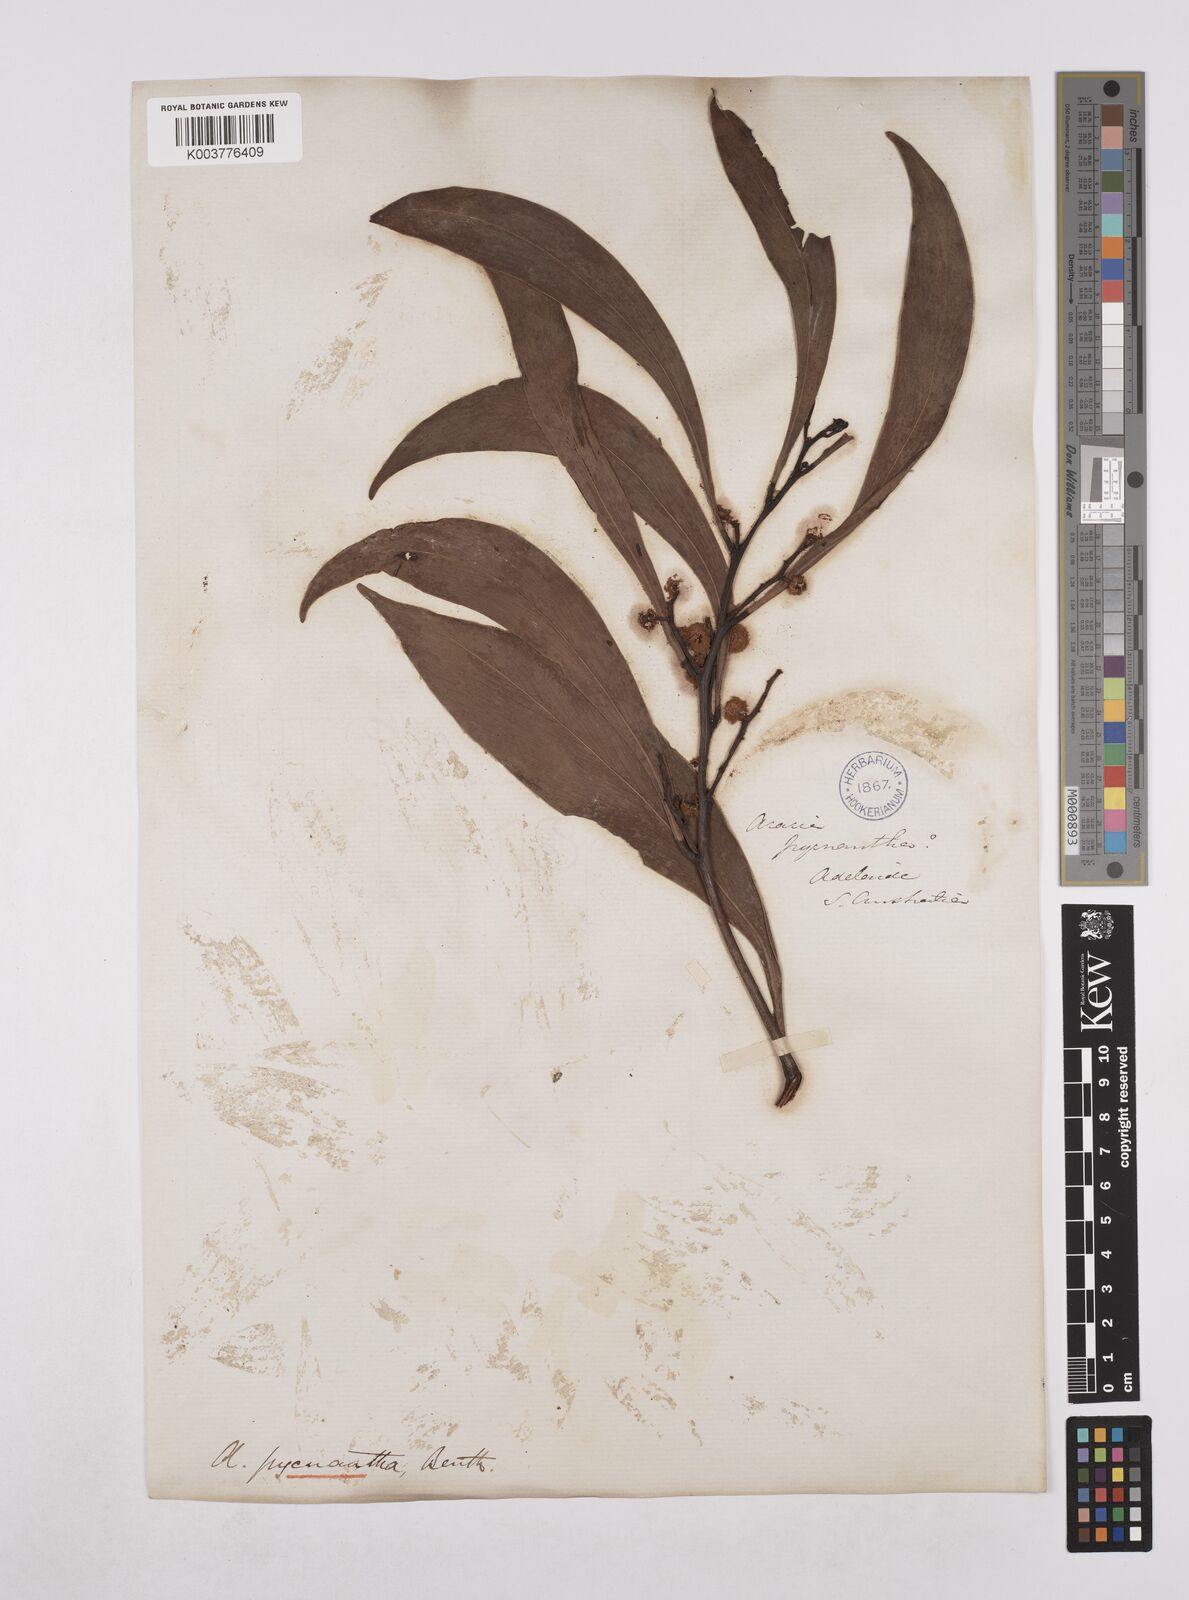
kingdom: Plantae
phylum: Tracheophyta
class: Magnoliopsida
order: Fabales
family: Fabaceae
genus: Acacia
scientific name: Acacia pycnantha
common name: Golden wattle
